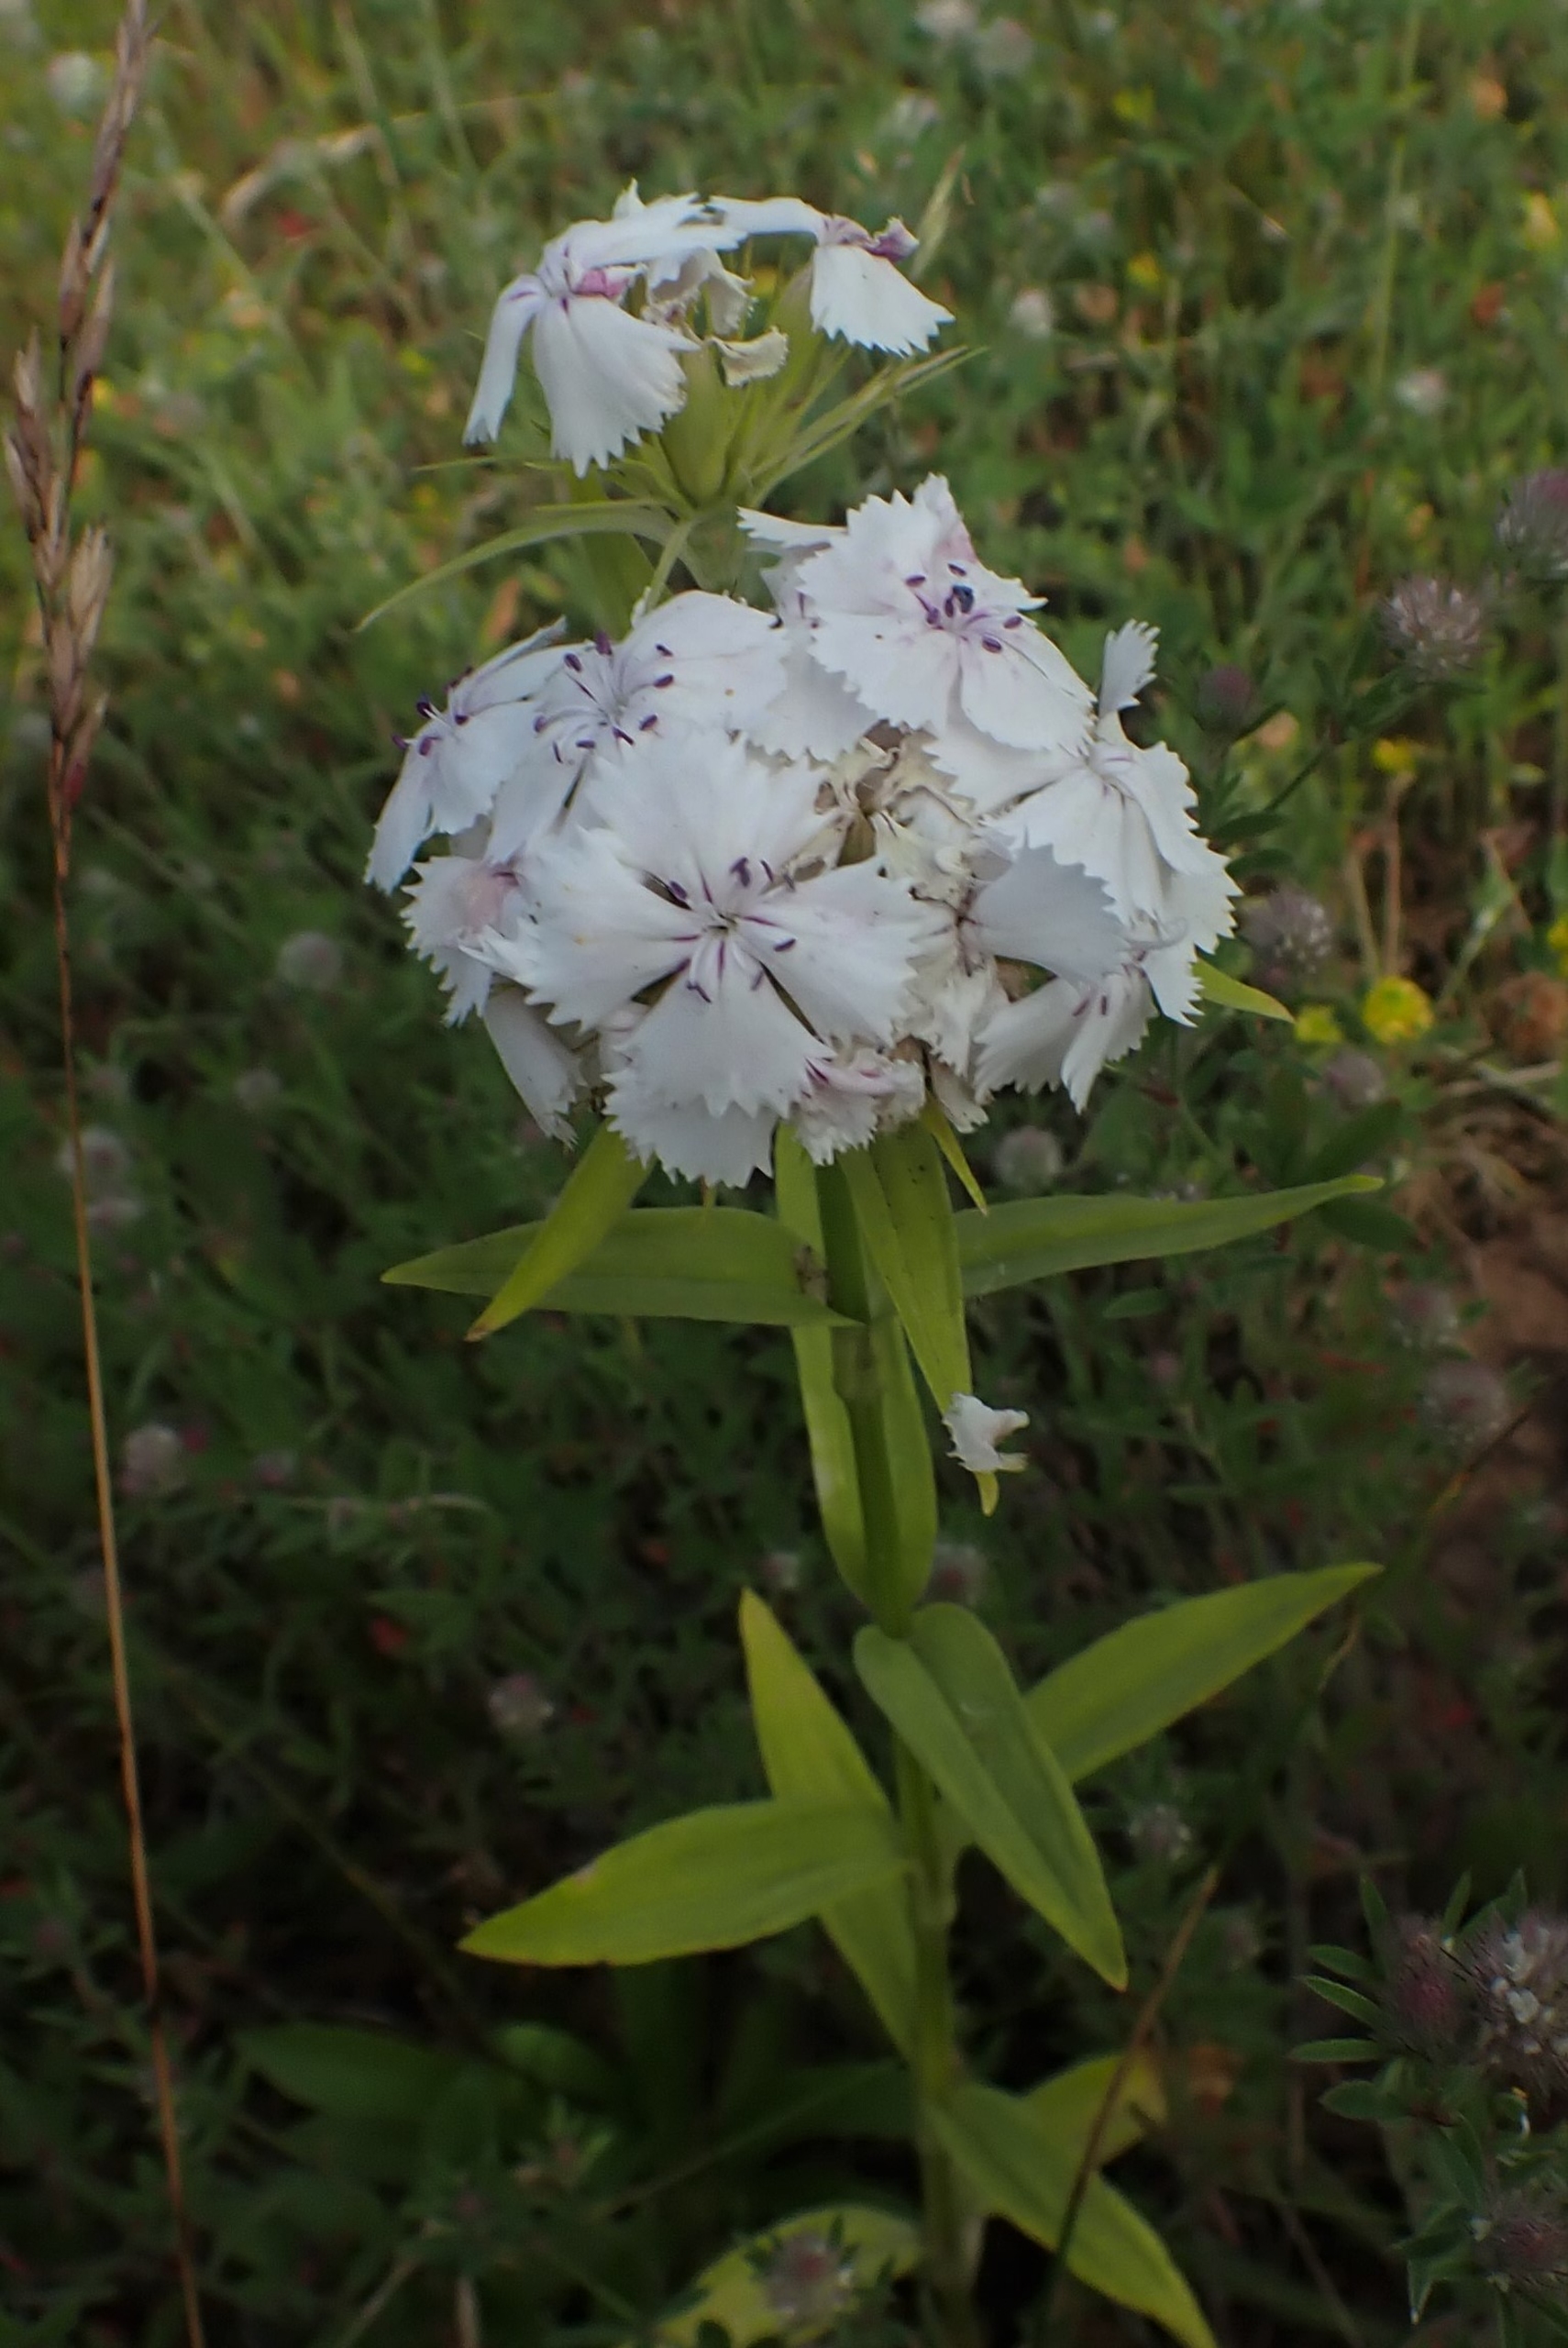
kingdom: Plantae
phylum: Tracheophyta
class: Magnoliopsida
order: Caryophyllales
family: Caryophyllaceae
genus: Dianthus
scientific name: Dianthus barbatus
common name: Studenter-nellike
